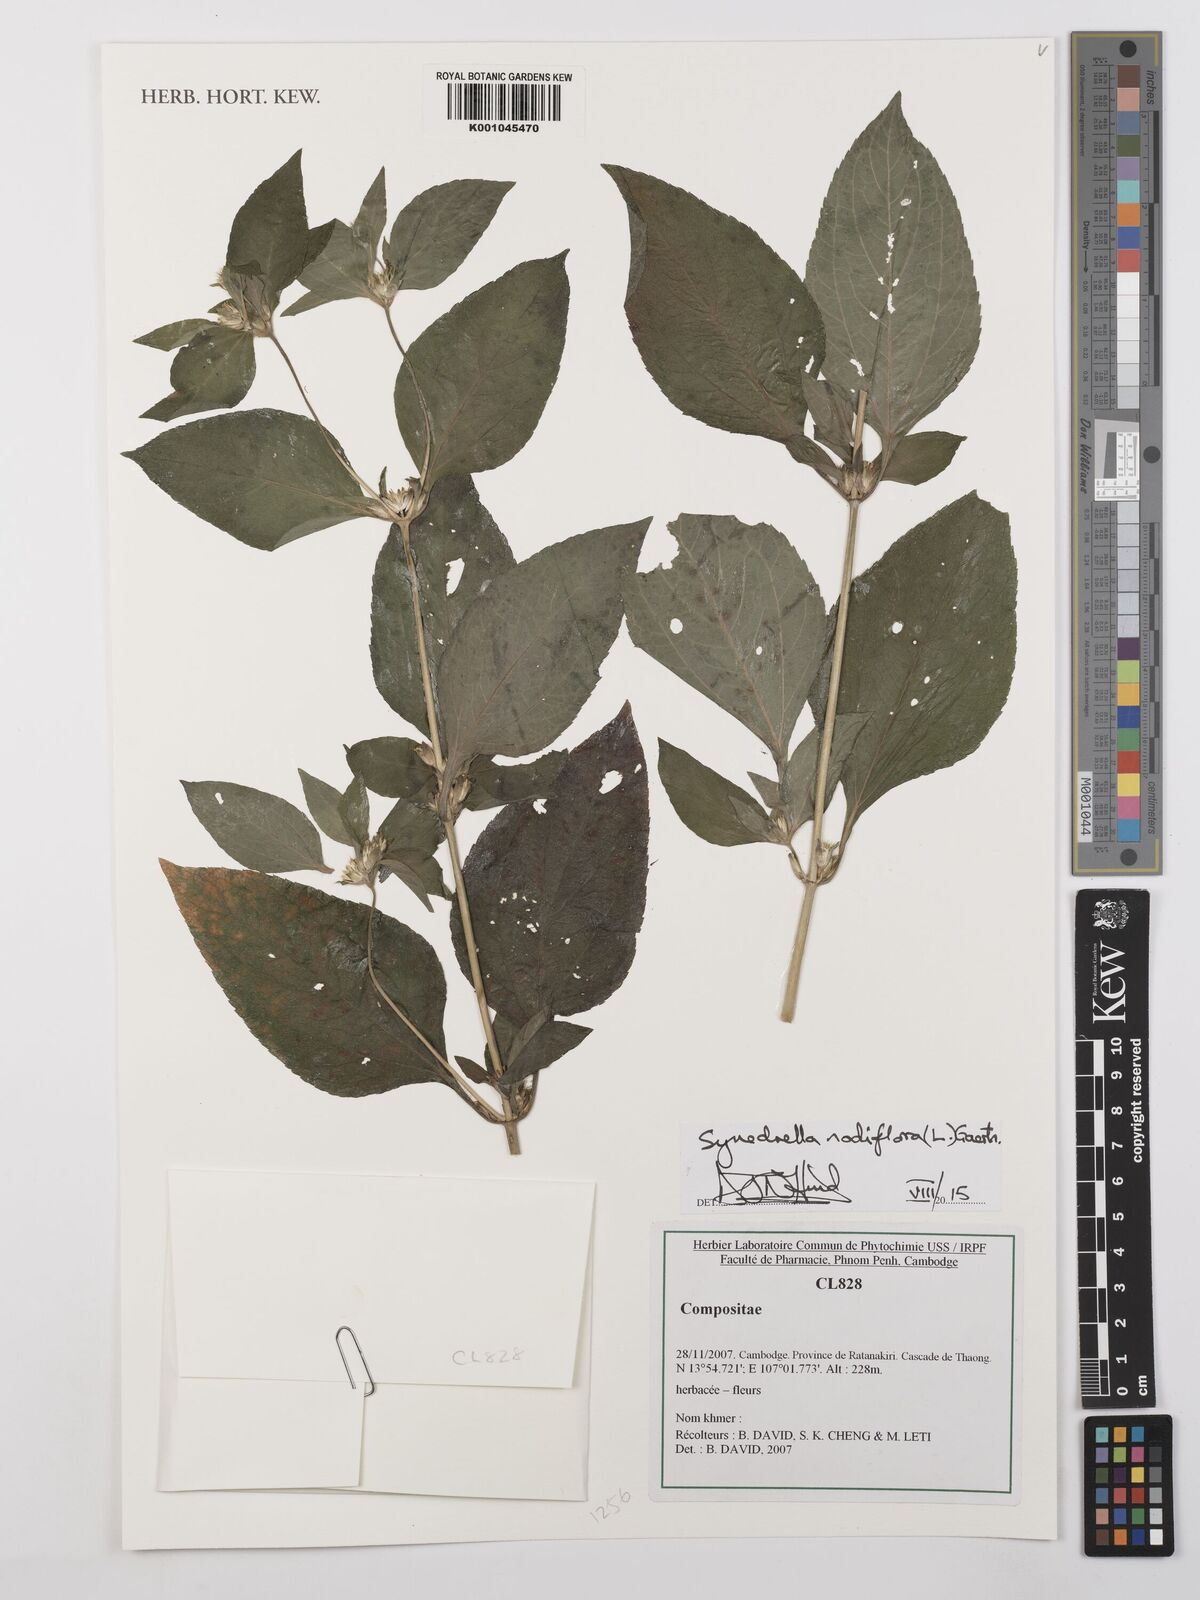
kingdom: Plantae
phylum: Tracheophyta
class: Magnoliopsida
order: Asterales
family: Asteraceae
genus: Synedrella
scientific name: Synedrella nodiflora
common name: Nodeweed
